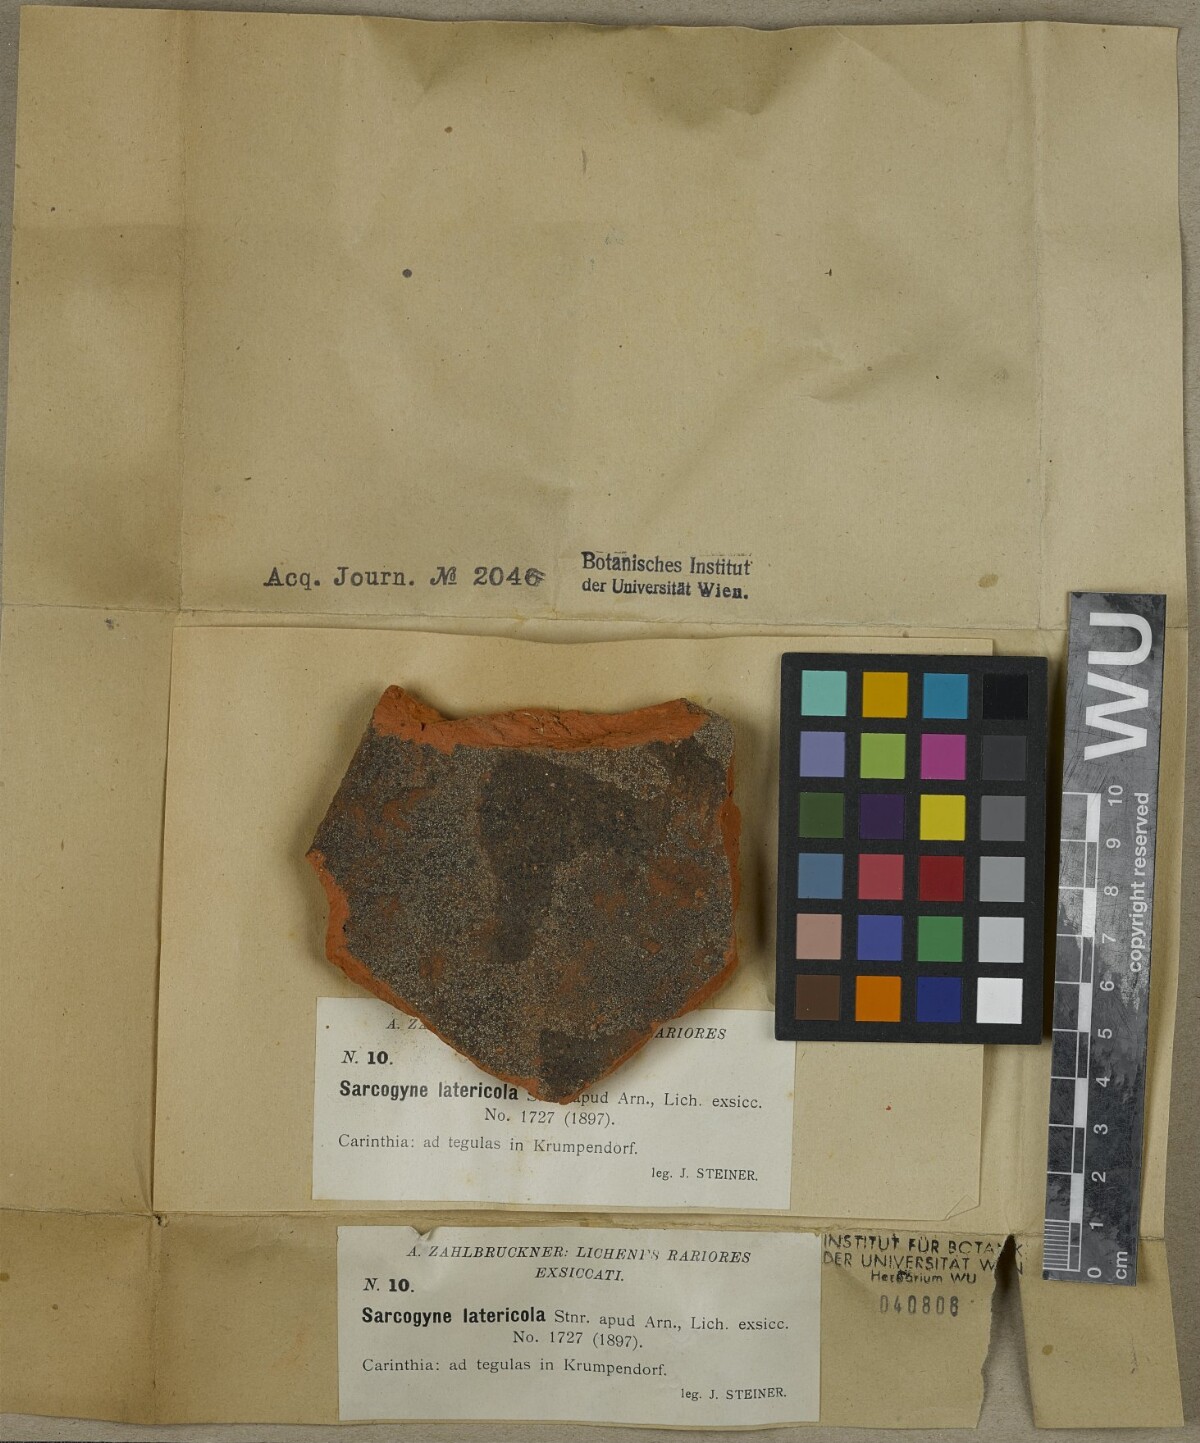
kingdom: Fungi
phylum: Ascomycota
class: Lecanoromycetes
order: Acarosporales
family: Acarosporaceae
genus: Sarcogyne
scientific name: Sarcogyne
